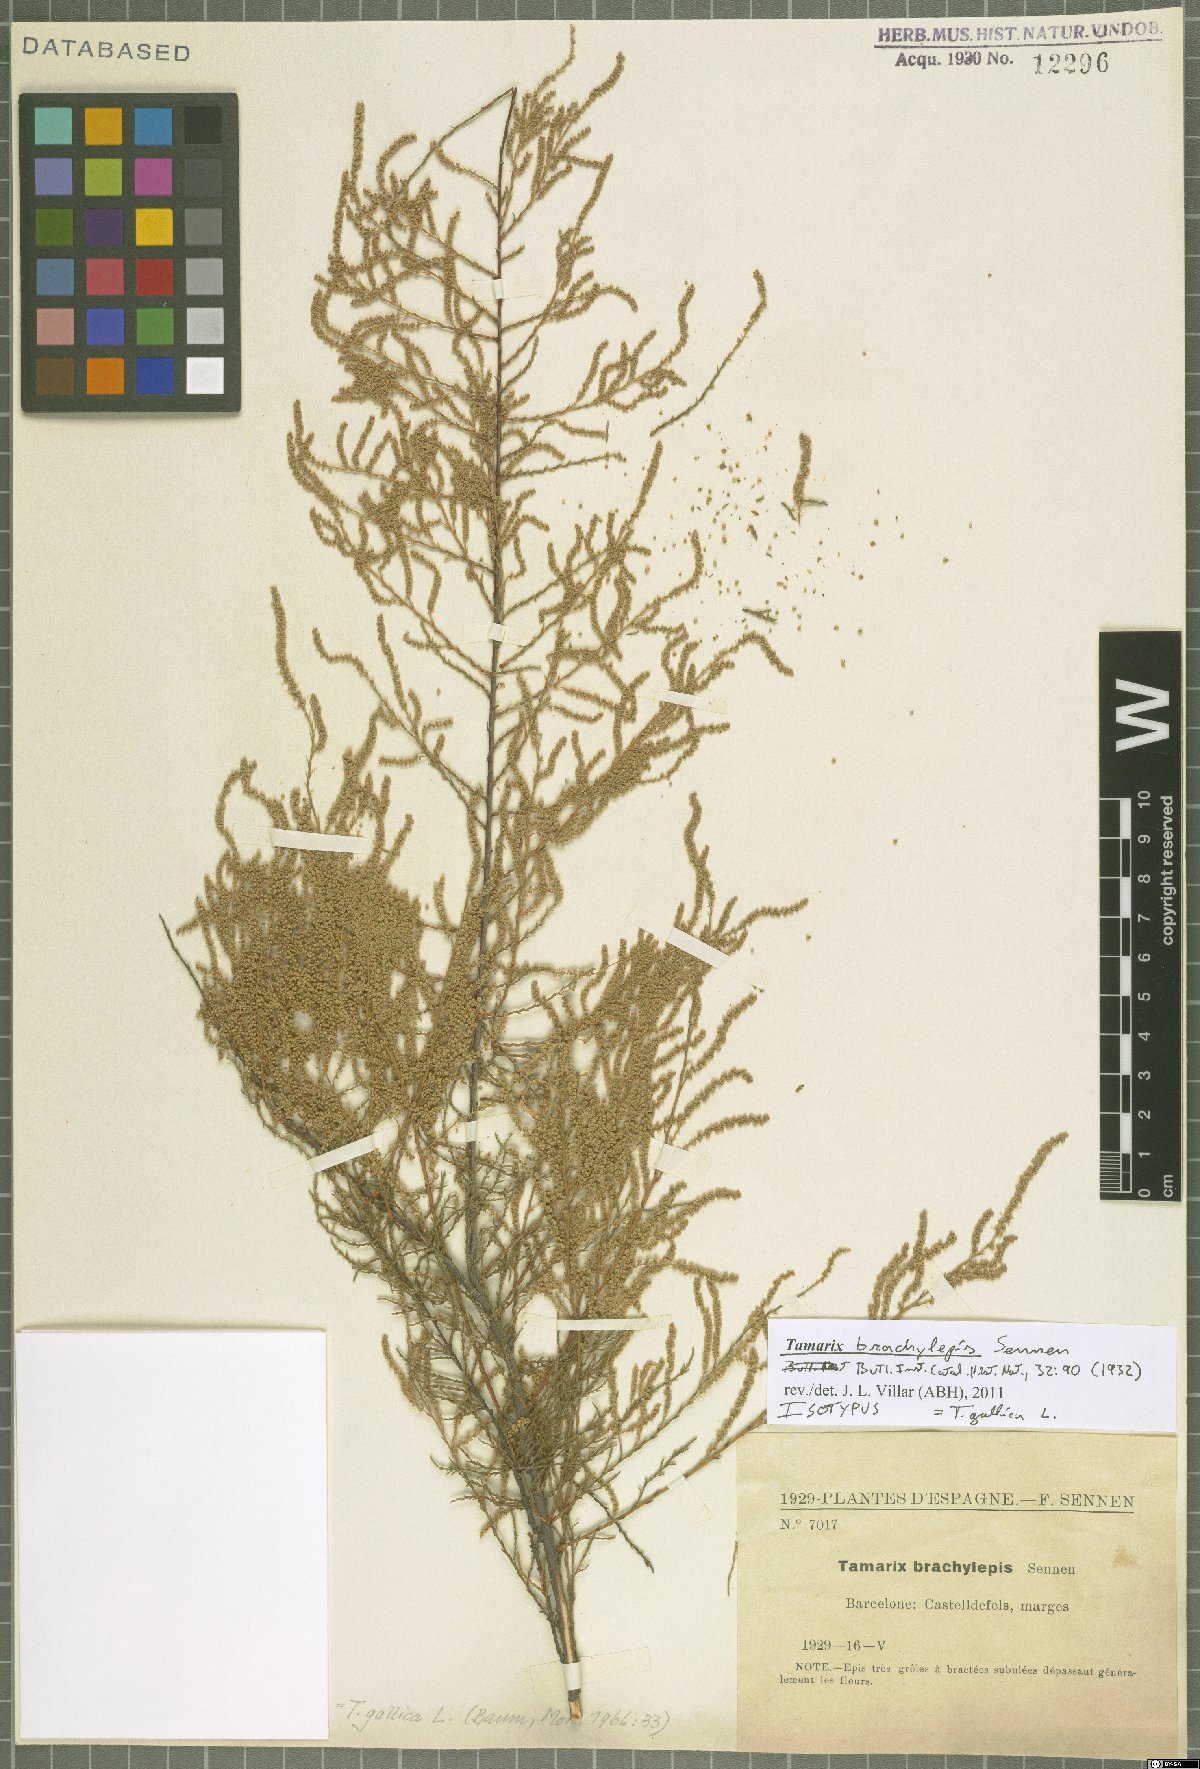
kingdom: Plantae
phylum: Tracheophyta
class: Magnoliopsida
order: Caryophyllales
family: Tamaricaceae
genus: Tamarix
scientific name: Tamarix gallica
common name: Tamarisk
